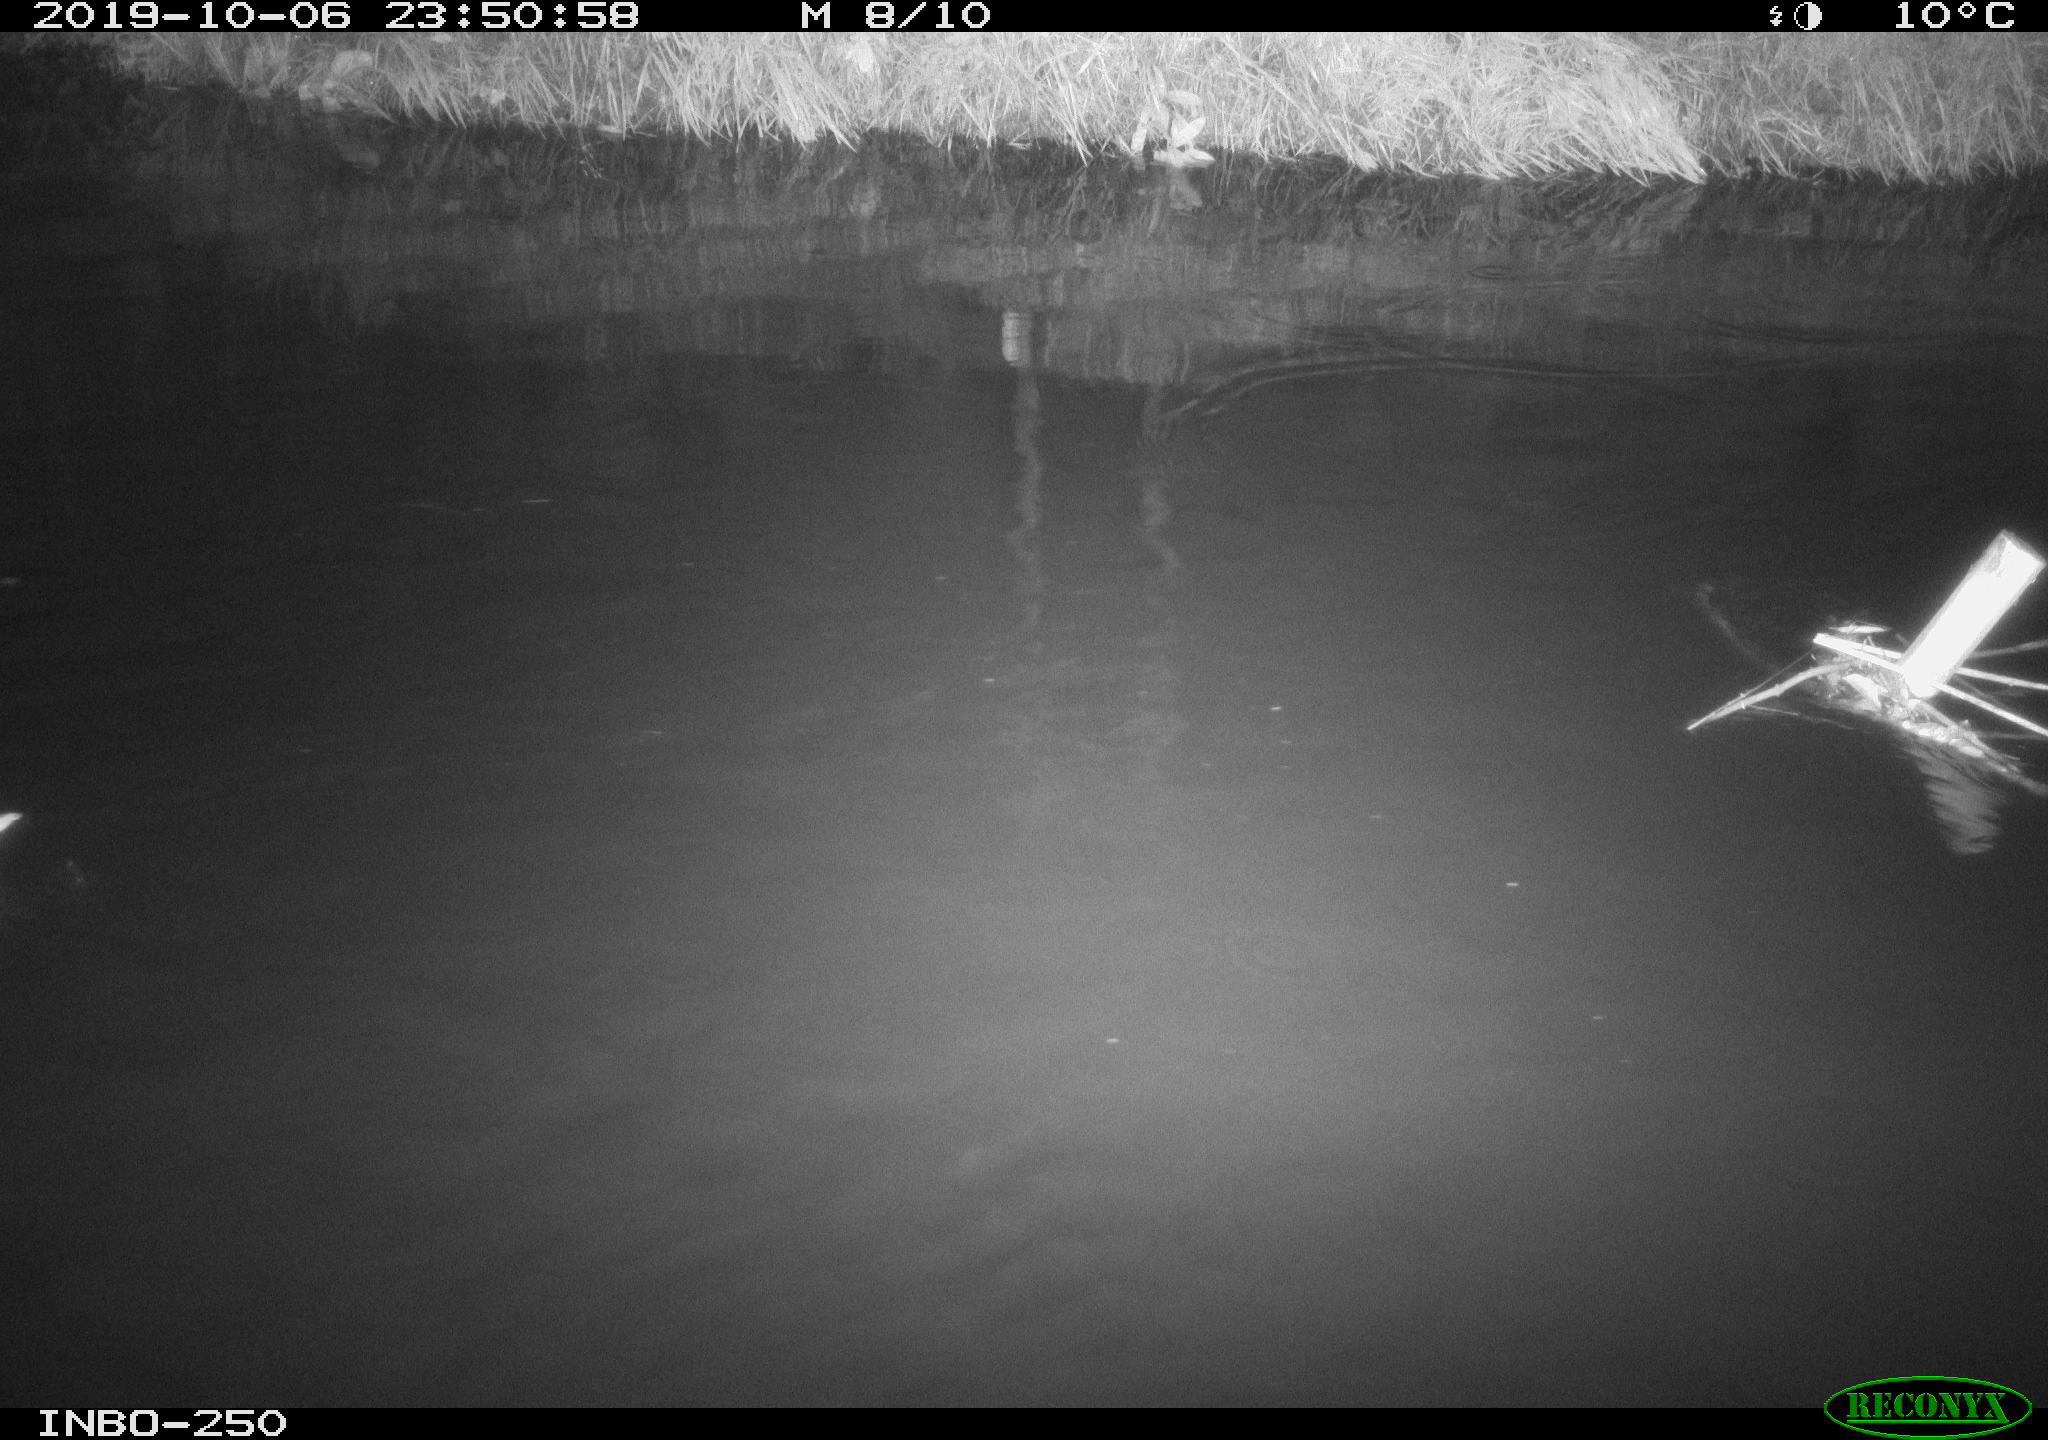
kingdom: Animalia
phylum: Chordata
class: Aves
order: Anseriformes
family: Anatidae
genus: Anas
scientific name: Anas platyrhynchos
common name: Mallard
